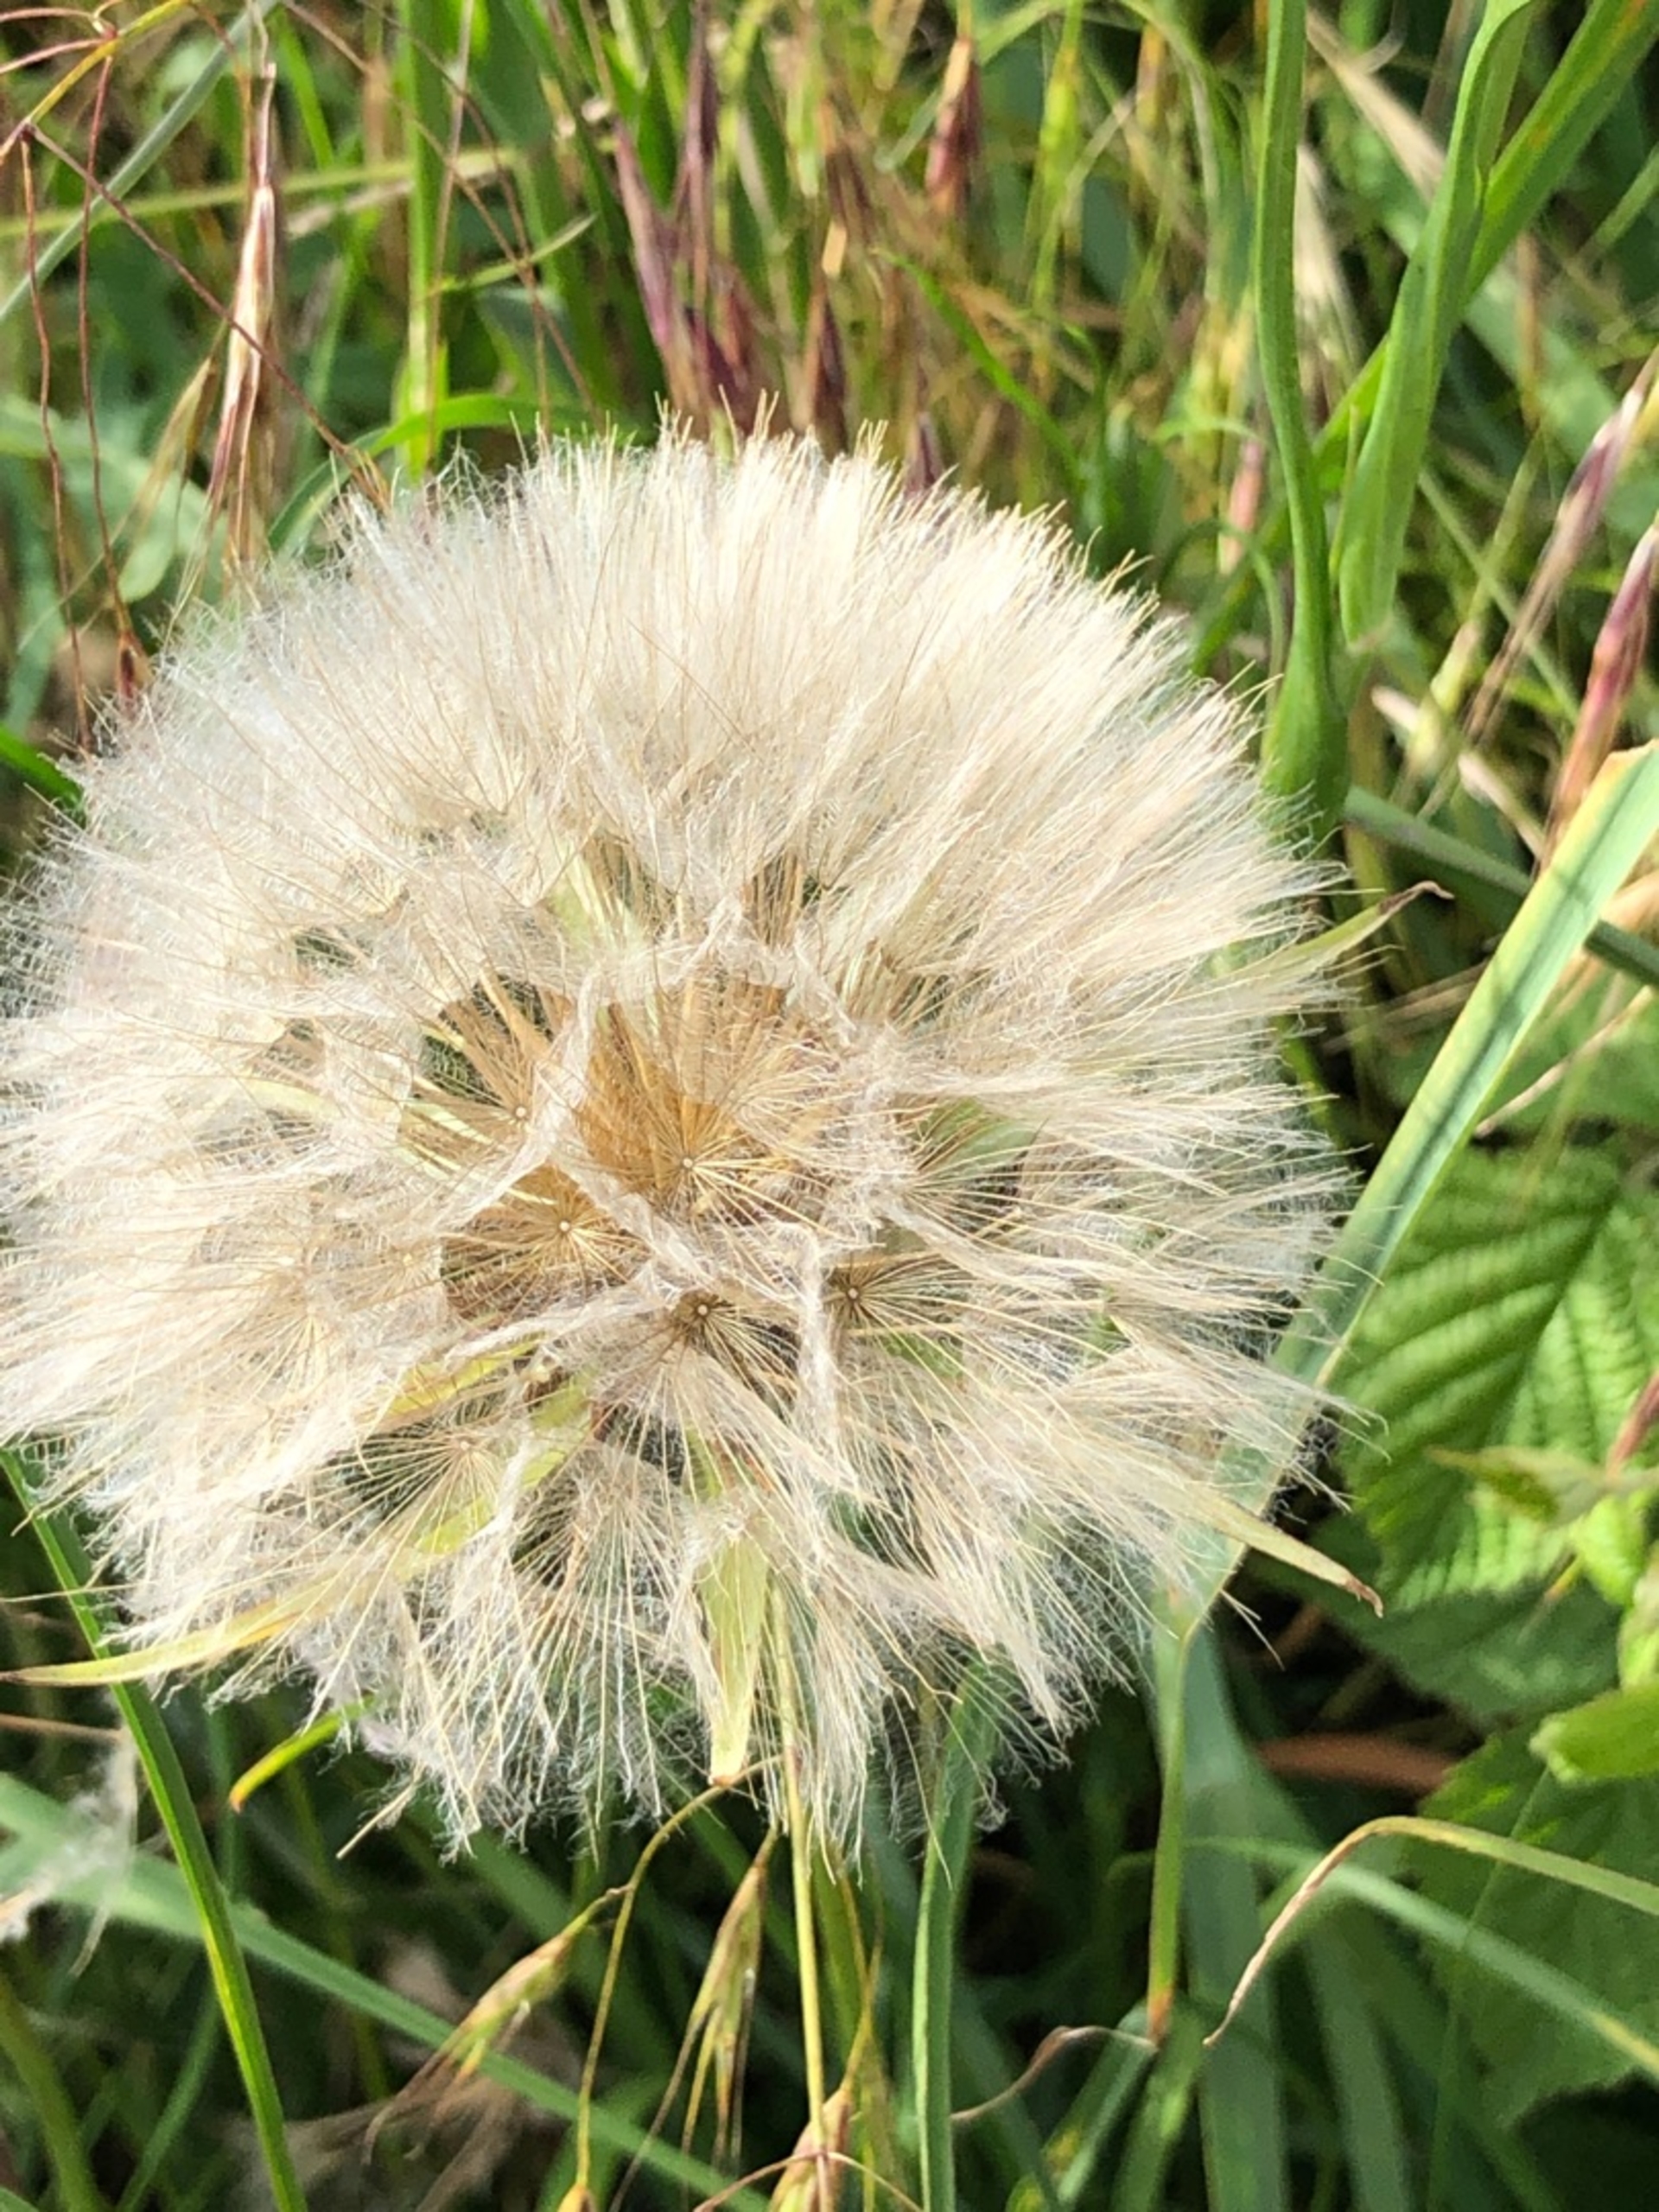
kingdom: Plantae
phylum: Tracheophyta
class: Magnoliopsida
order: Asterales
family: Asteraceae
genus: Tragopogon
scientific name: Tragopogon pratensis
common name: Gedeskæg
